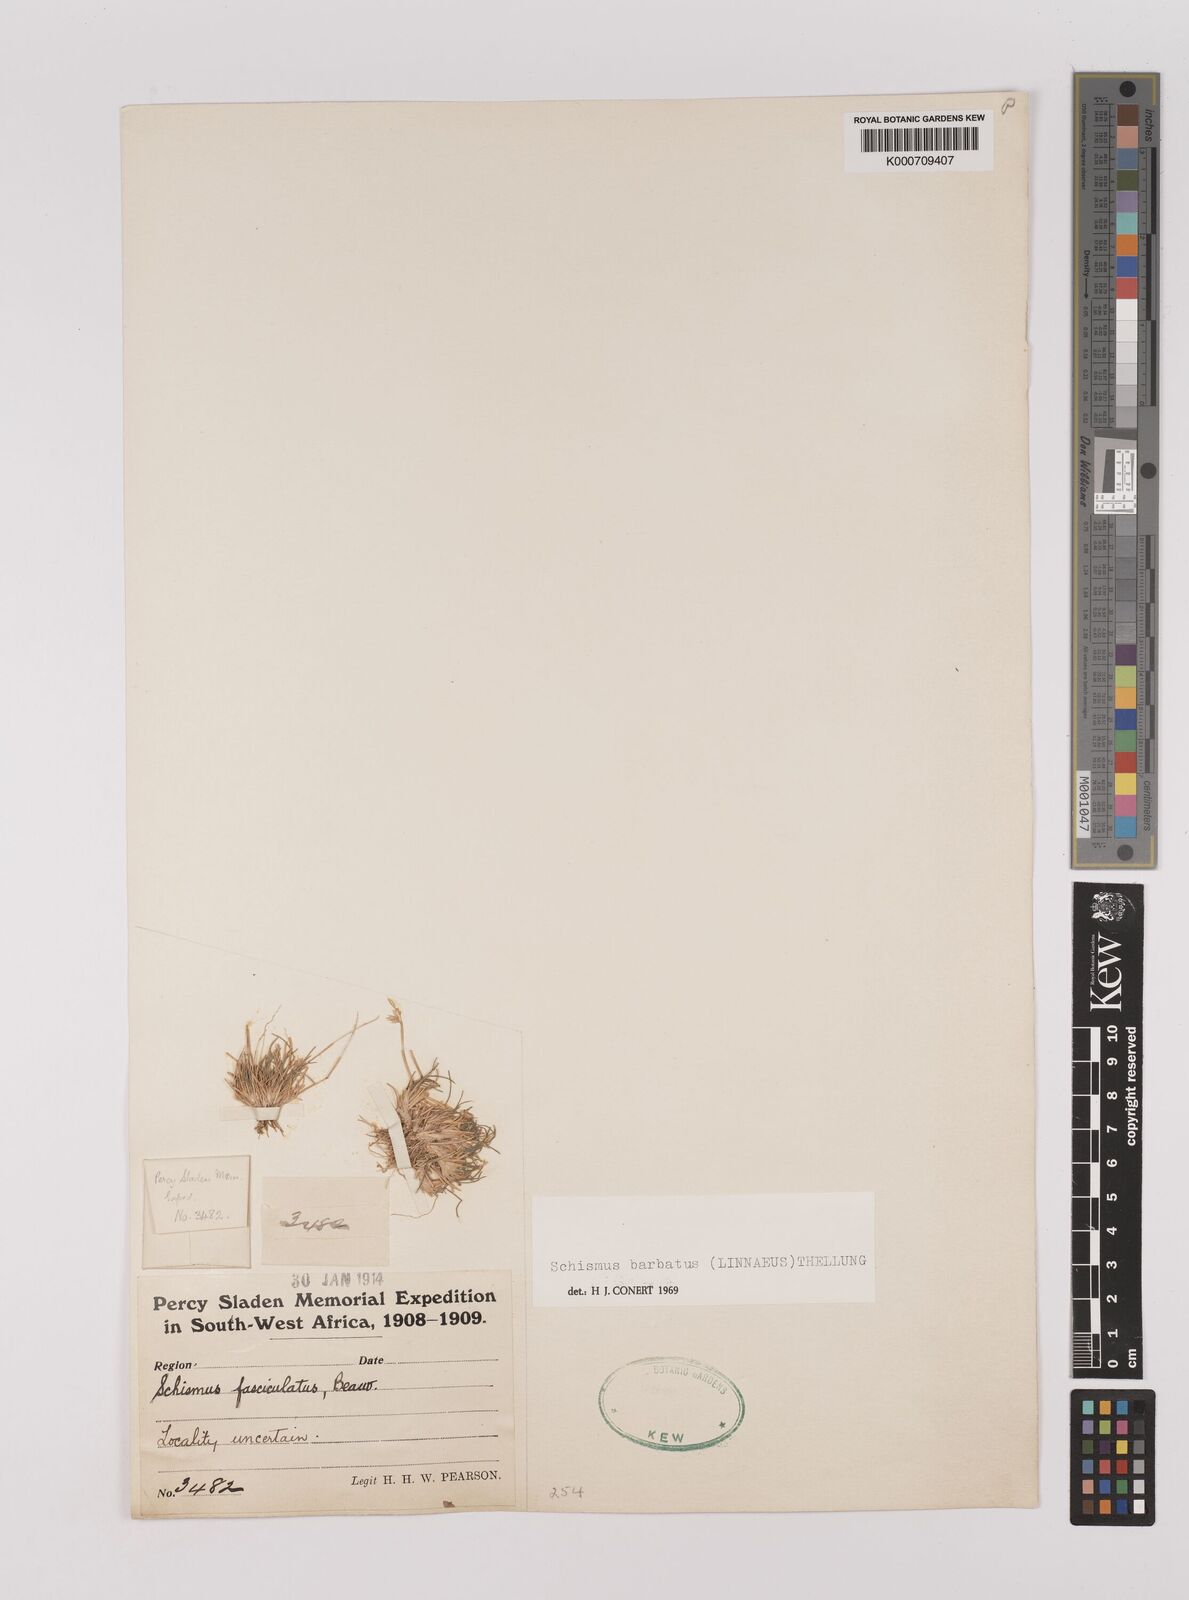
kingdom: Plantae
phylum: Tracheophyta
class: Liliopsida
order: Poales
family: Poaceae
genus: Schismus
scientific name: Schismus barbatus
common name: Kelch-grass
